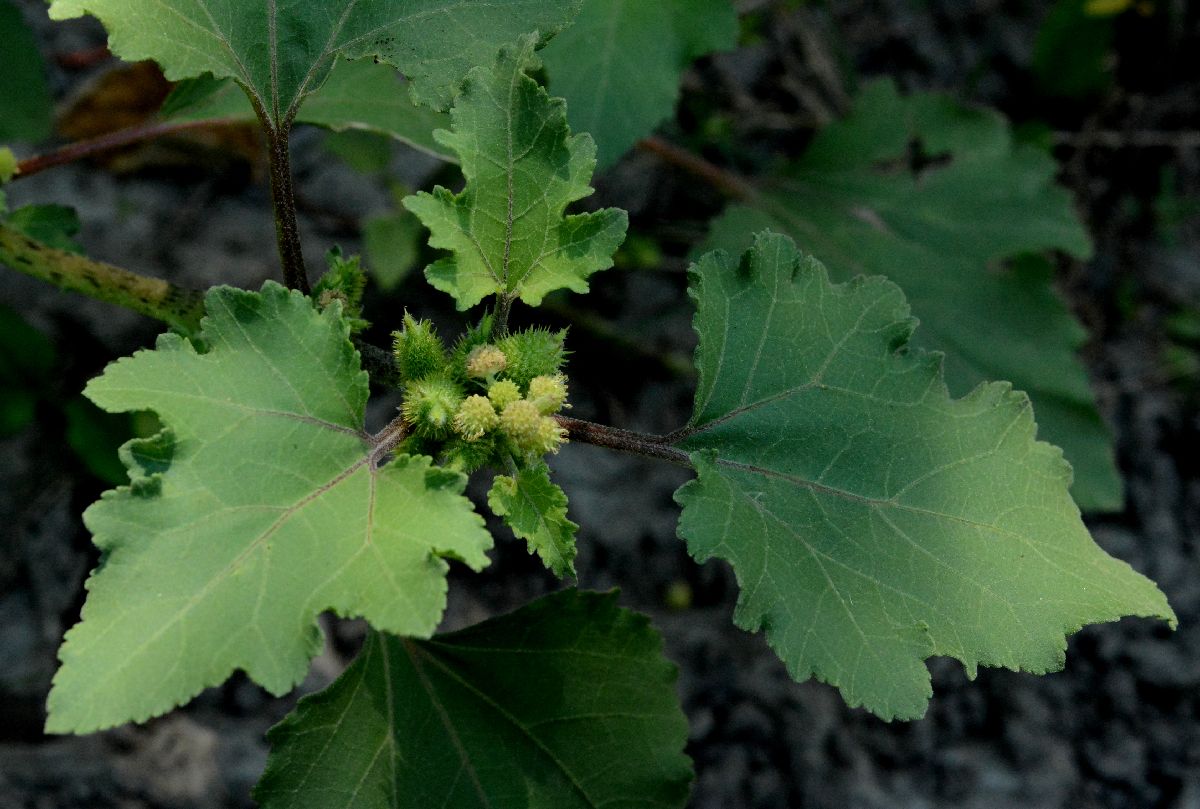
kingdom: Plantae
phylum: Tracheophyta
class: Magnoliopsida
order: Asterales
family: Asteraceae
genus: Xanthium
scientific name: Xanthium orientale
